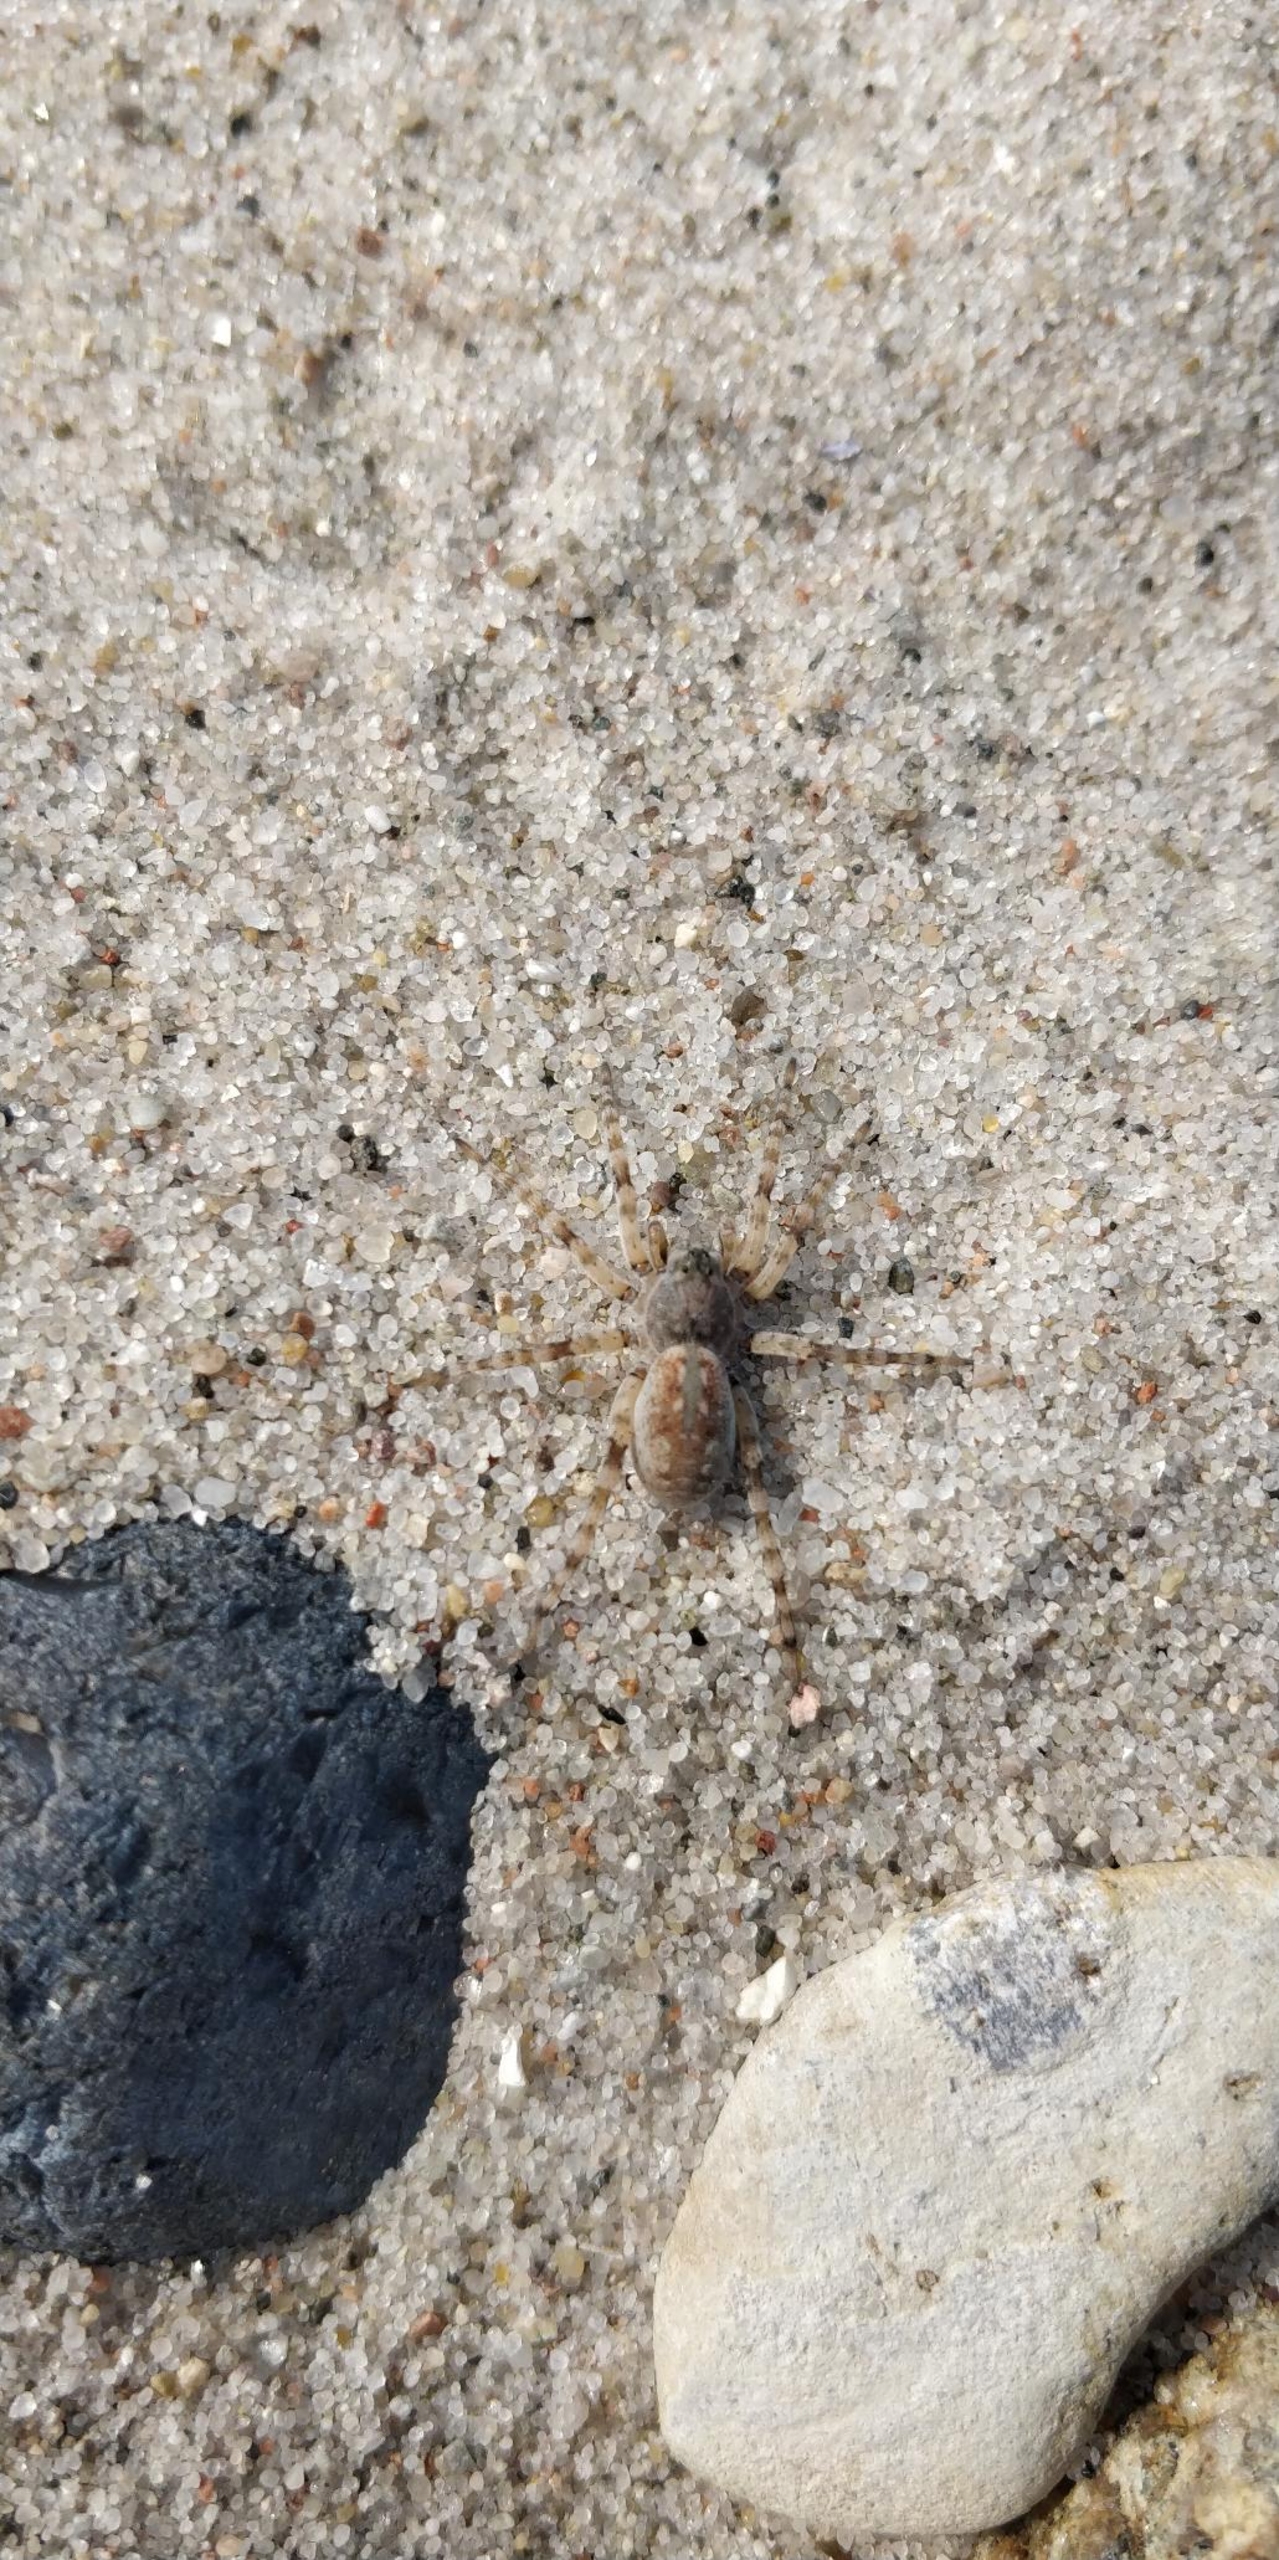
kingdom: Animalia
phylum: Arthropoda
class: Arachnida
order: Araneae
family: Lycosidae
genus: Arctosa
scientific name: Arctosa cinerea
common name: Sandgraveedderkop
